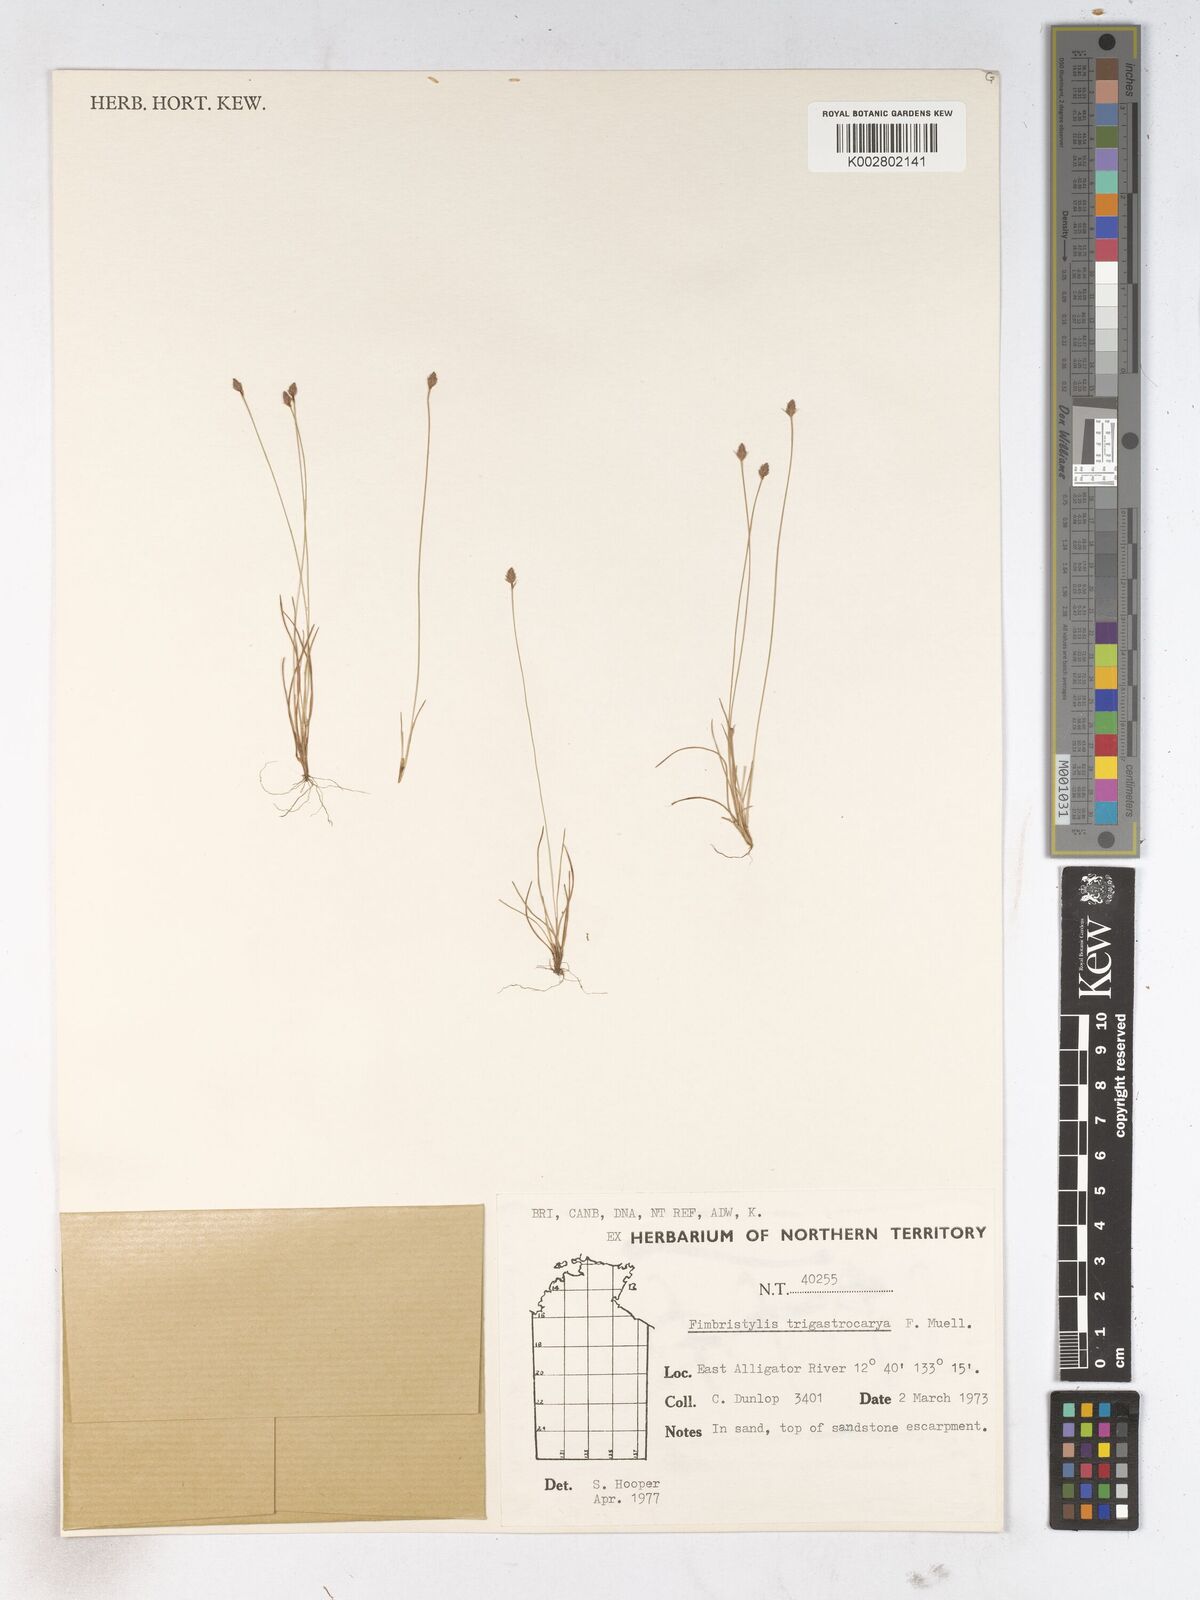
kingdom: Plantae
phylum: Tracheophyta
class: Liliopsida
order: Poales
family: Cyperaceae
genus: Fimbristylis
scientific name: Fimbristylis trigastrocarya
